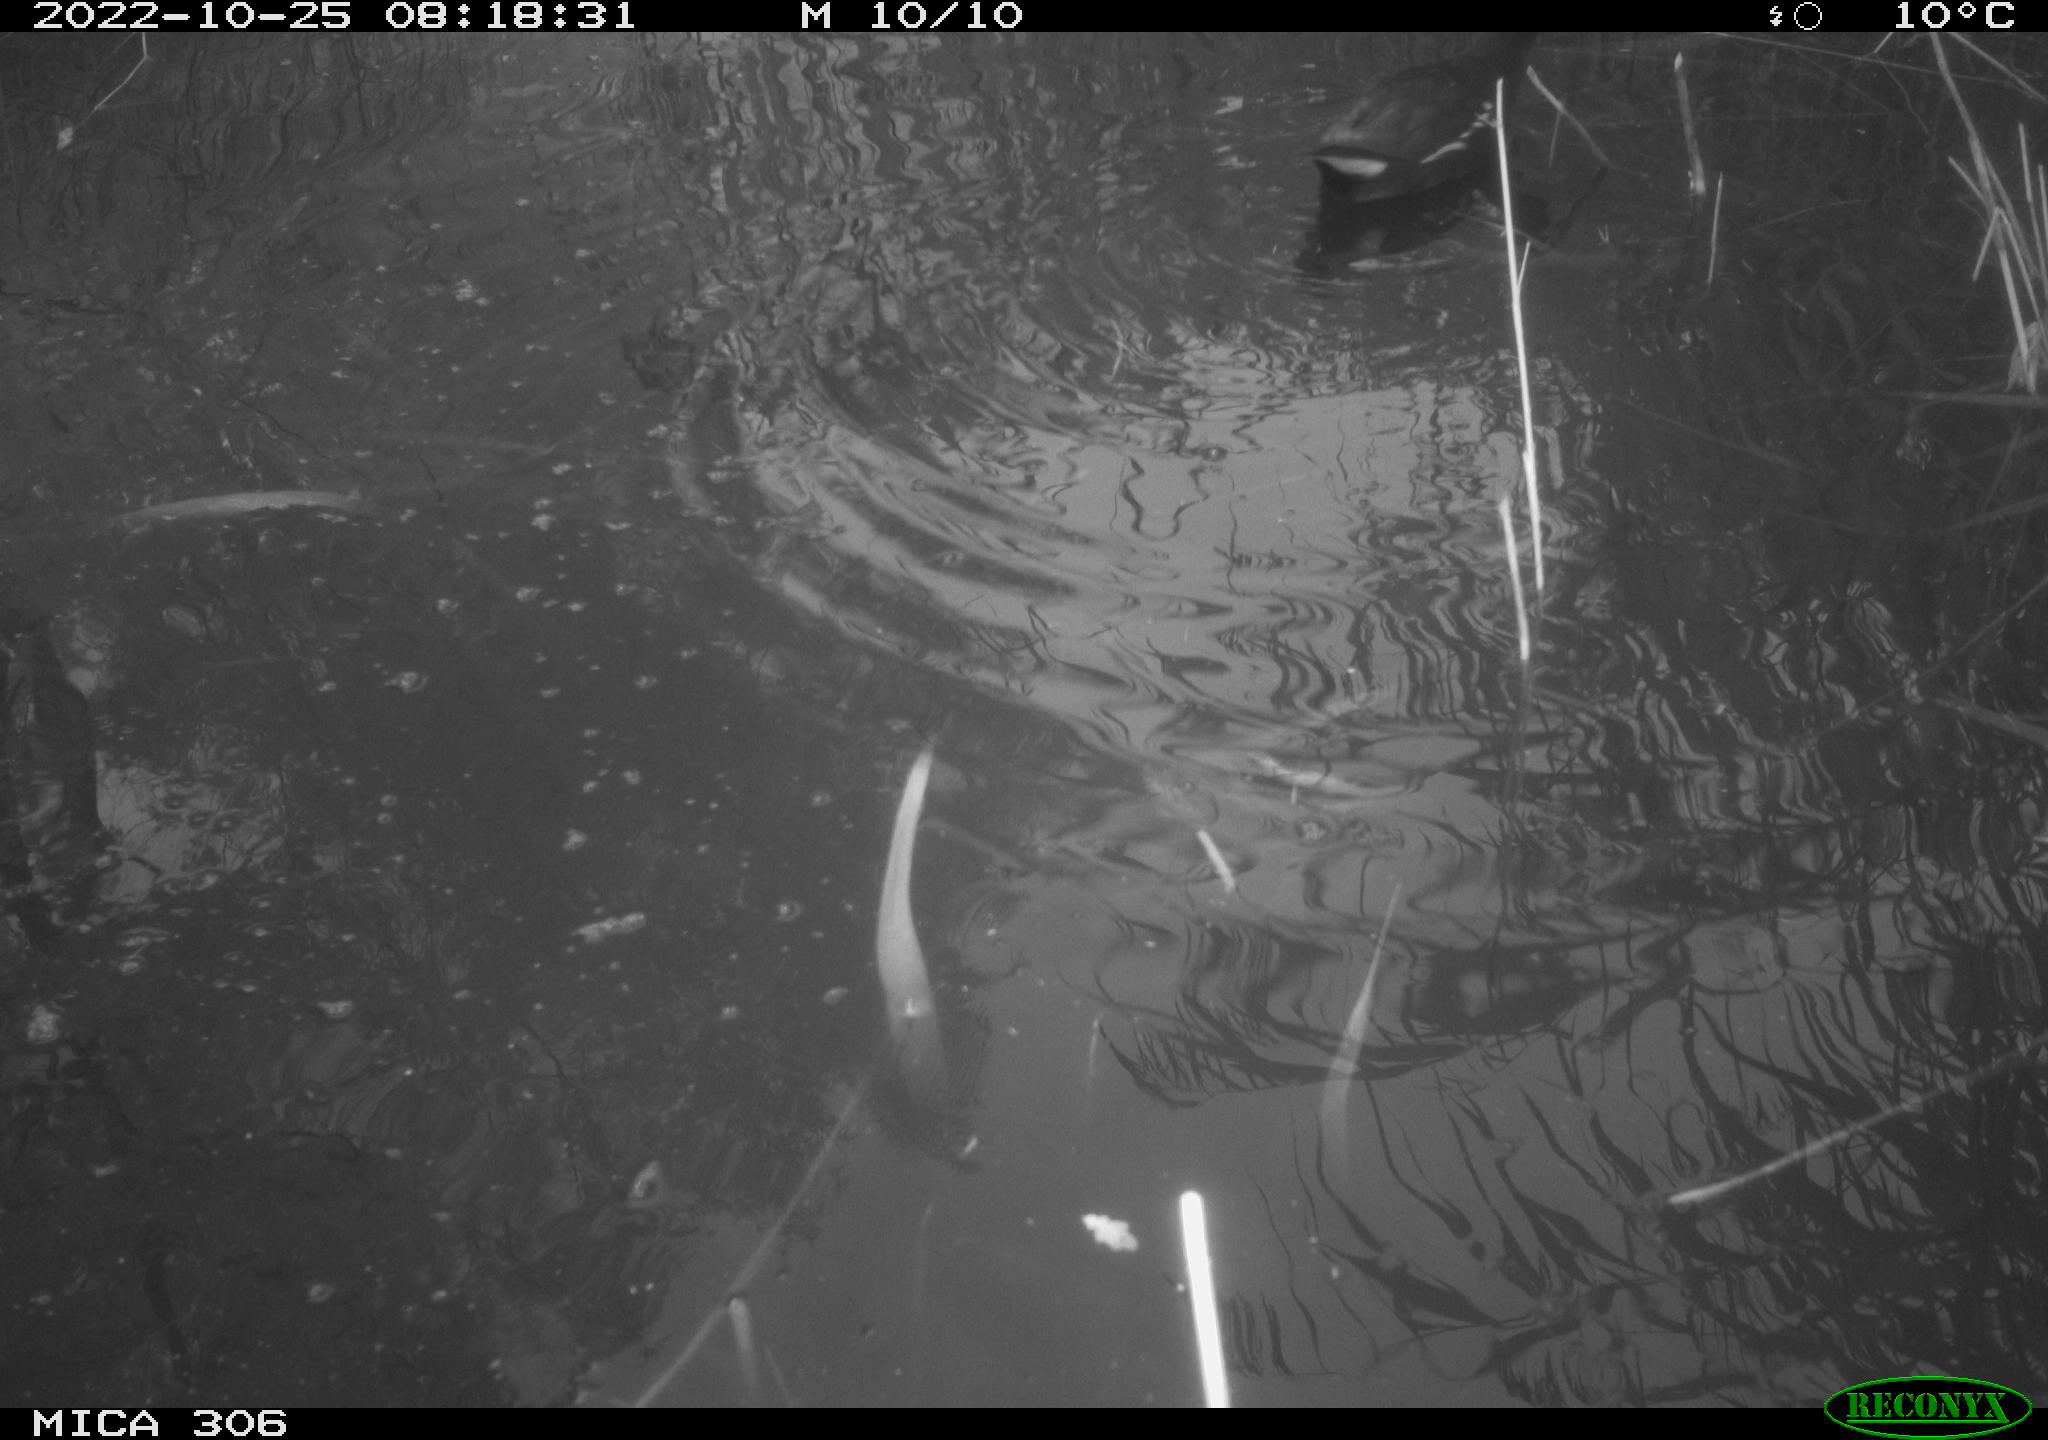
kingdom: Animalia
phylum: Chordata
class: Aves
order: Gruiformes
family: Rallidae
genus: Gallinula
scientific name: Gallinula chloropus
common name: Common moorhen
